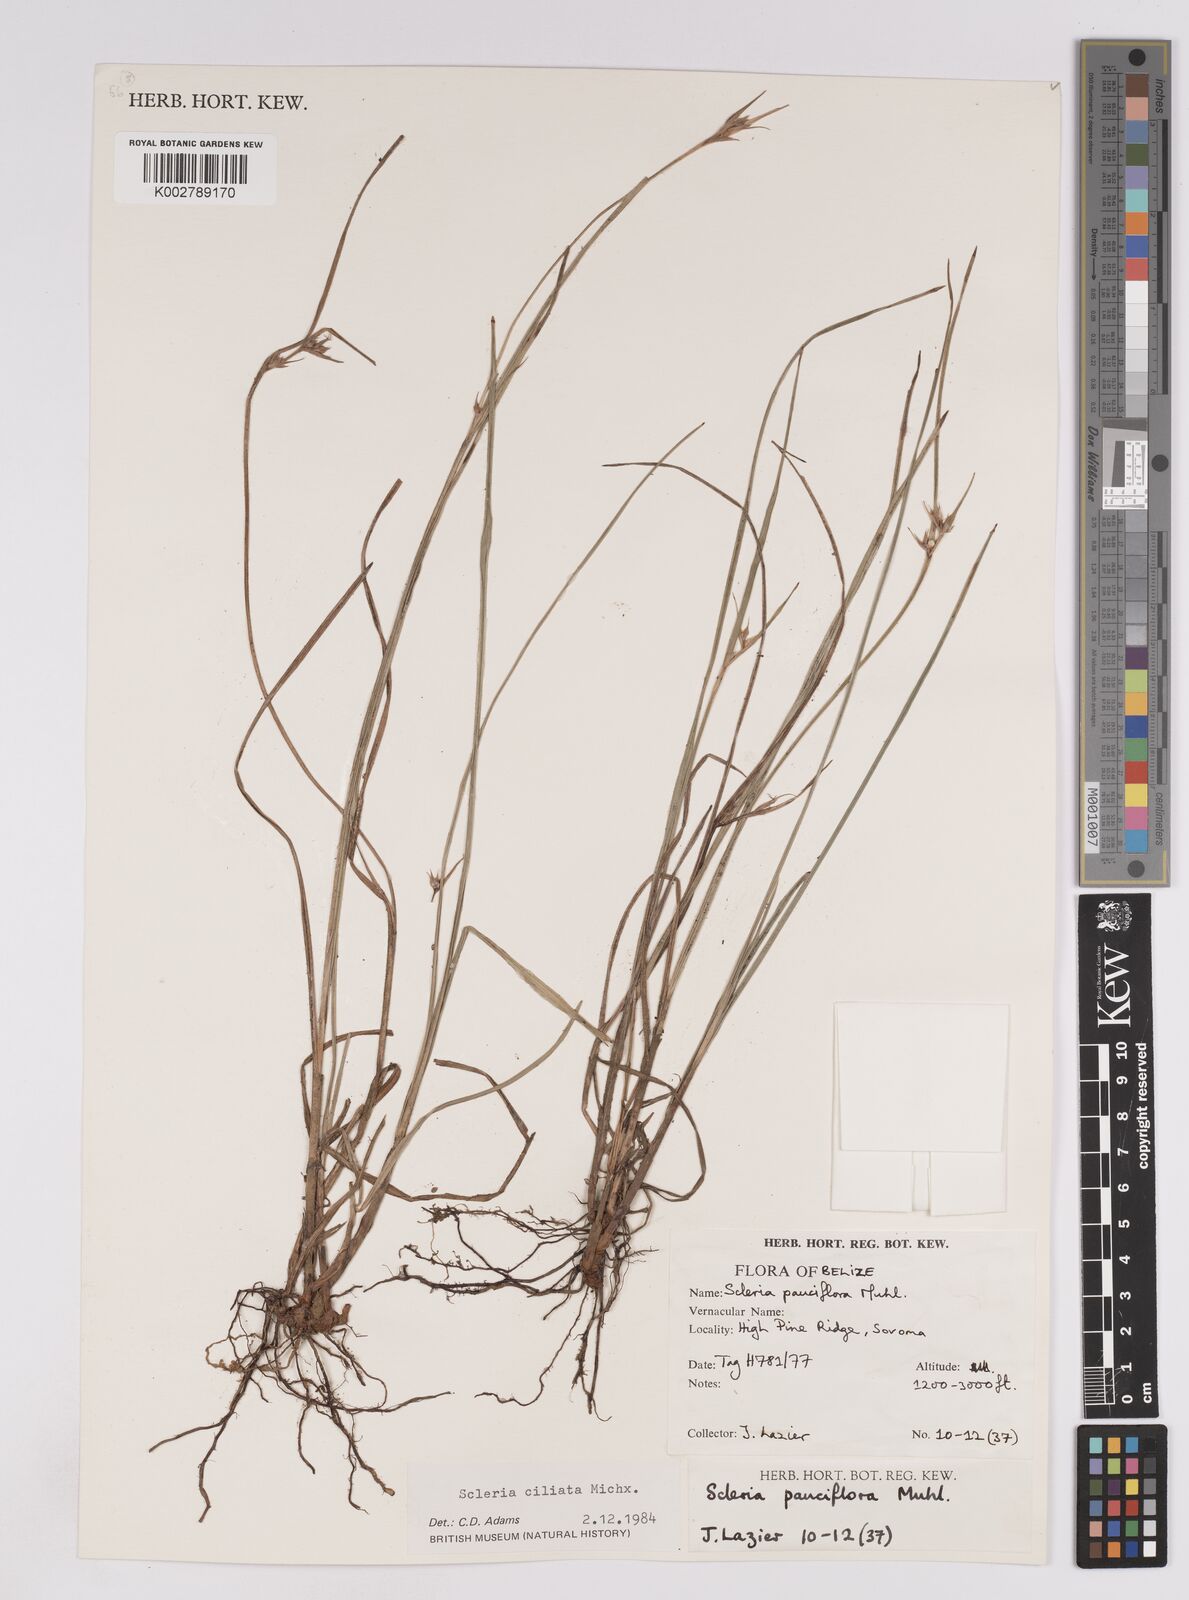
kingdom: Plantae
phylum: Tracheophyta
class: Liliopsida
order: Poales
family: Cyperaceae
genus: Scleria
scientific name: Scleria ciliata
